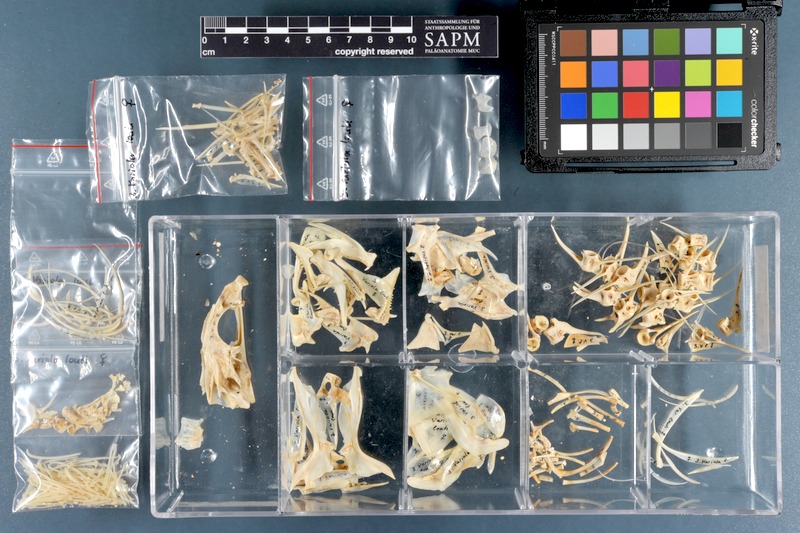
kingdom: Animalia
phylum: Chordata
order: Perciformes
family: Serranidae
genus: Variola
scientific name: Variola louti
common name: Yellow-edged lyretail
